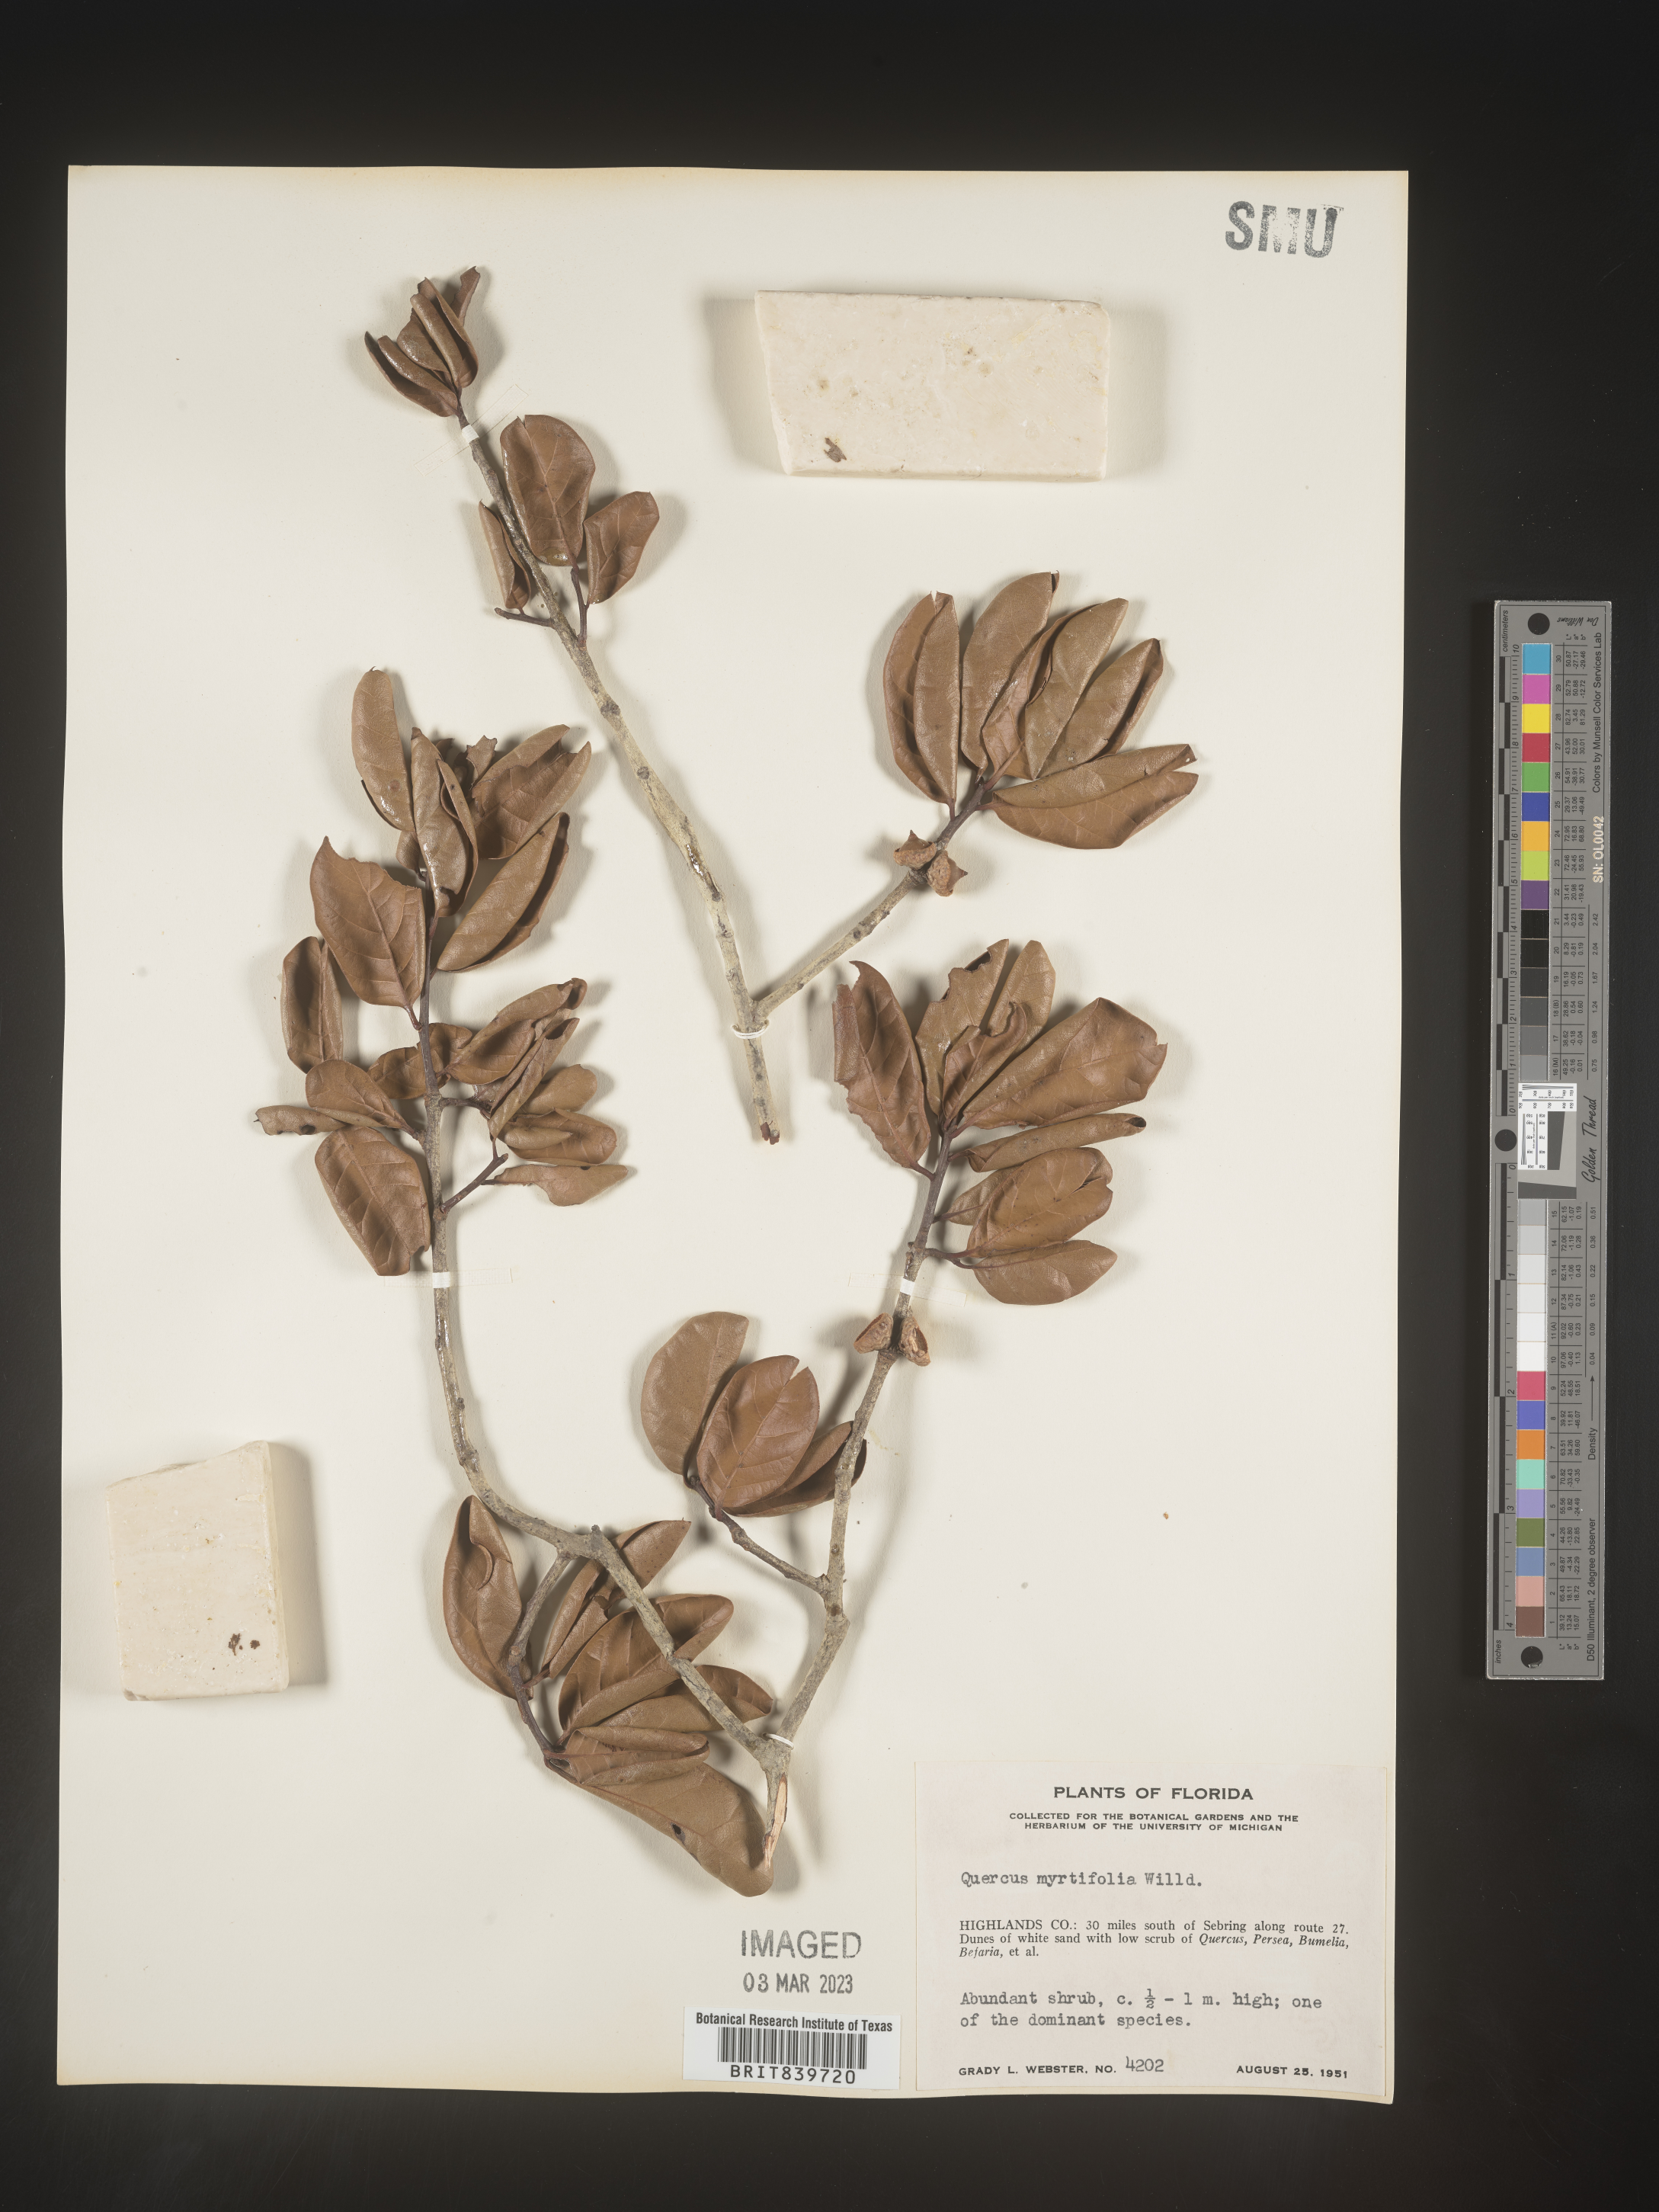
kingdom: Plantae
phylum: Tracheophyta
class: Magnoliopsida
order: Fagales
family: Fagaceae
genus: Quercus
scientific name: Quercus
